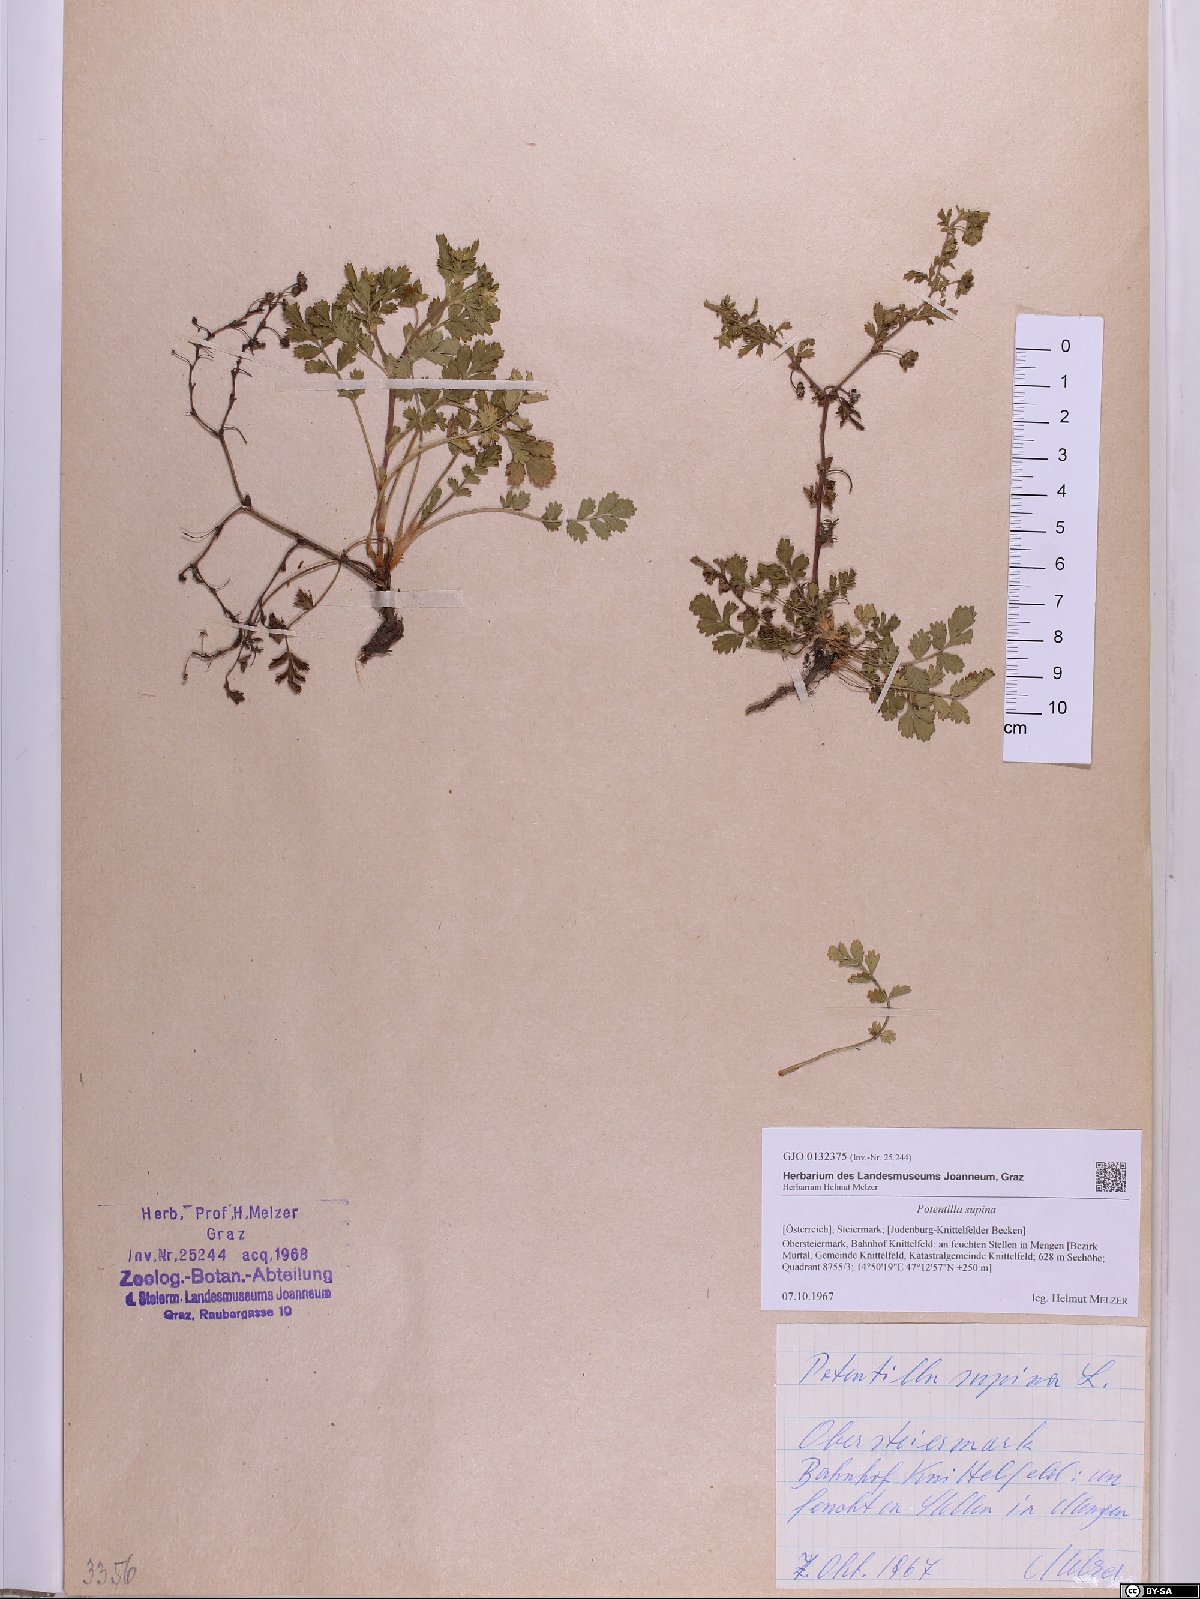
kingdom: Plantae
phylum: Tracheophyta
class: Magnoliopsida
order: Rosales
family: Rosaceae
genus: Potentilla
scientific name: Potentilla supina
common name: Prostrate cinquefoil
